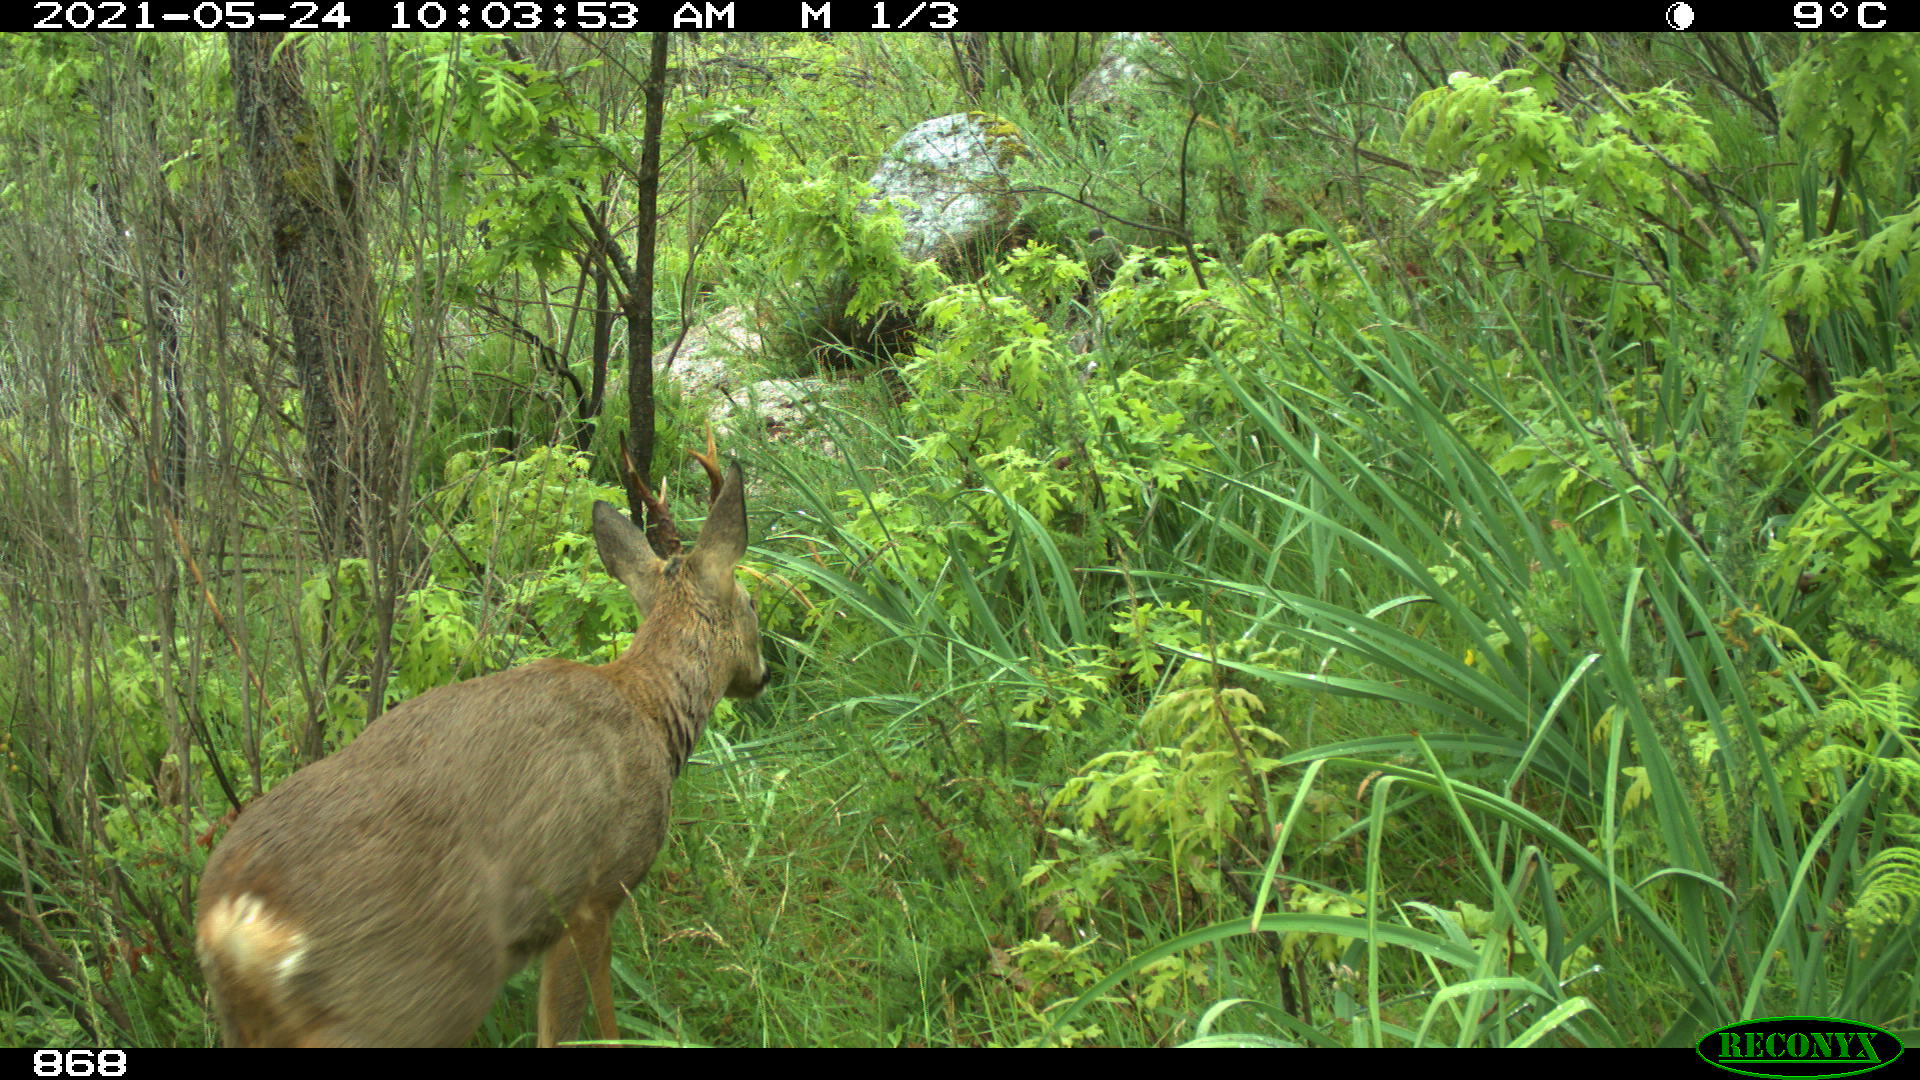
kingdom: Animalia
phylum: Chordata
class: Mammalia
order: Artiodactyla
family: Cervidae
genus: Capreolus
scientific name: Capreolus capreolus
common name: Western roe deer
